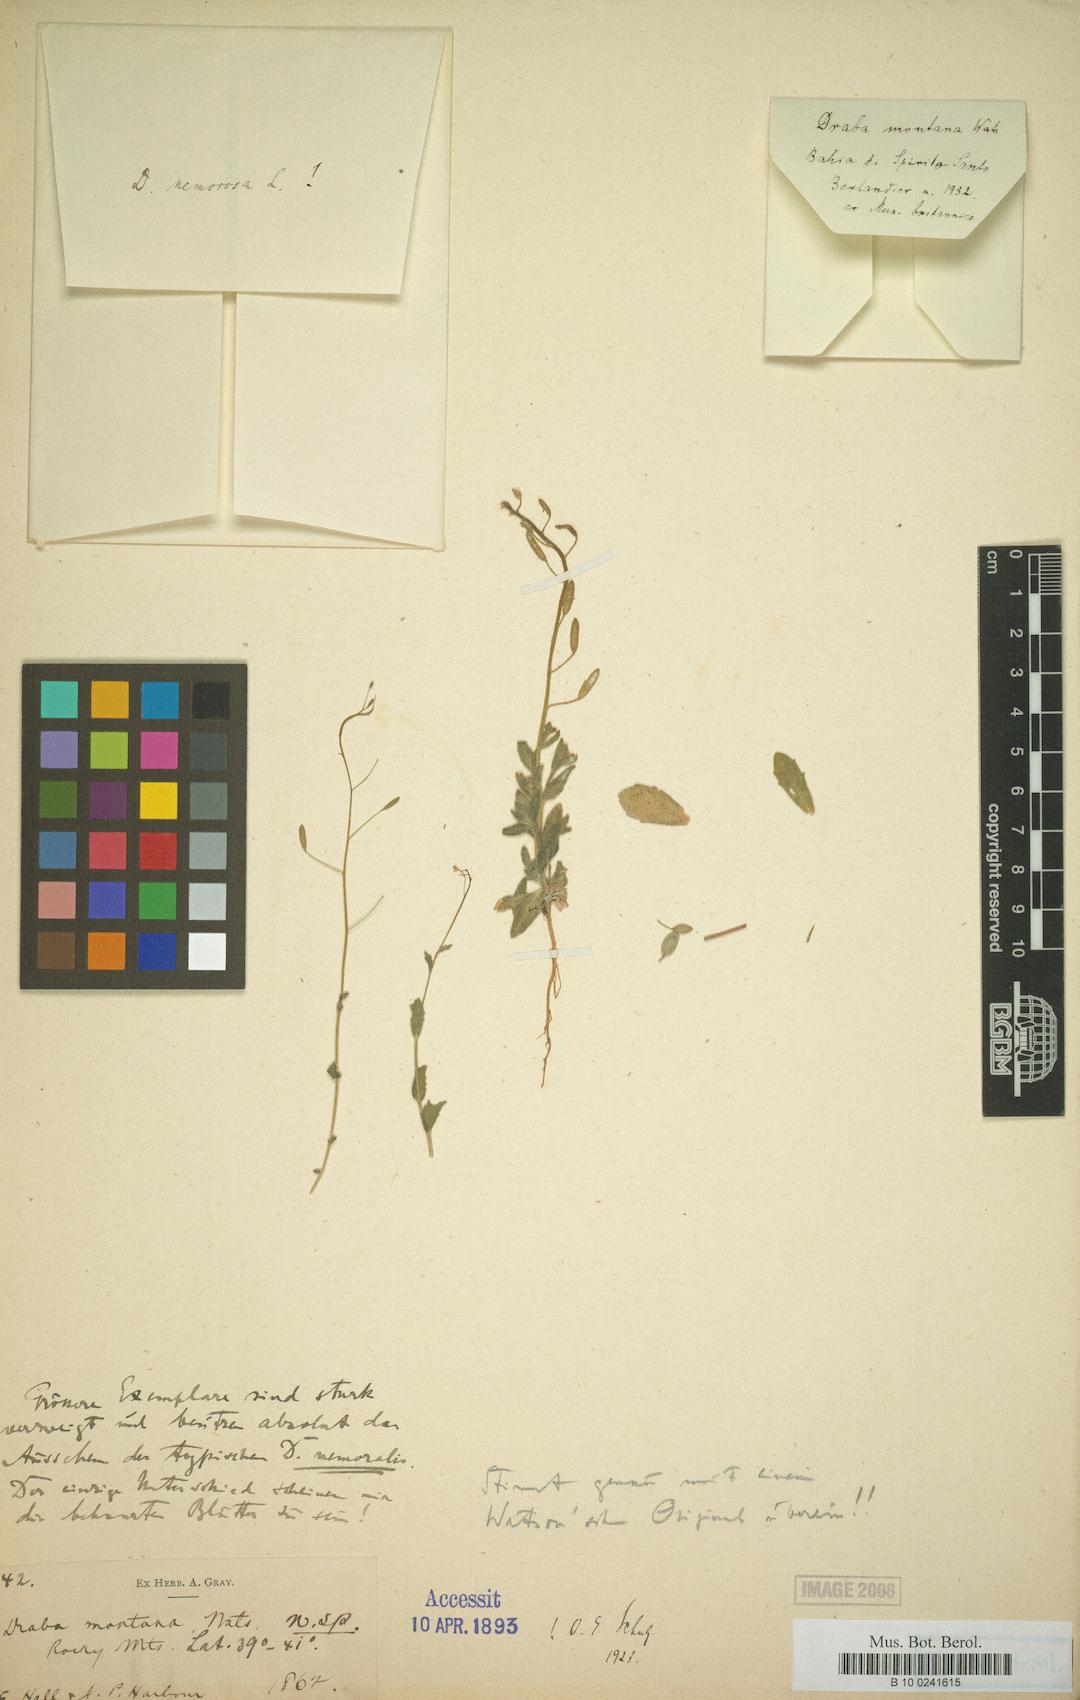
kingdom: Plantae
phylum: Tracheophyta
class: Magnoliopsida
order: Brassicales
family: Brassicaceae
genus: Draba
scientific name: Draba rectifructa
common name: Mountain whitlow-grass
